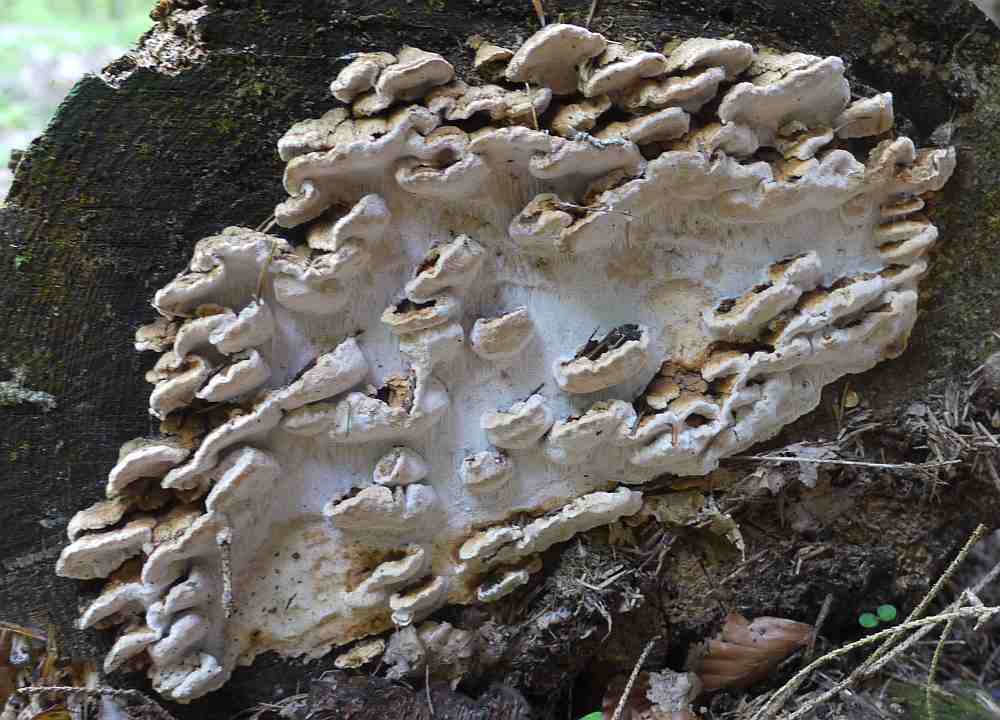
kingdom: Fungi
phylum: Basidiomycota
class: Agaricomycetes
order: Polyporales
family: Fomitopsidaceae
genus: Neoantrodia
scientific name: Neoantrodia serialis
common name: række-sejporesvamp
